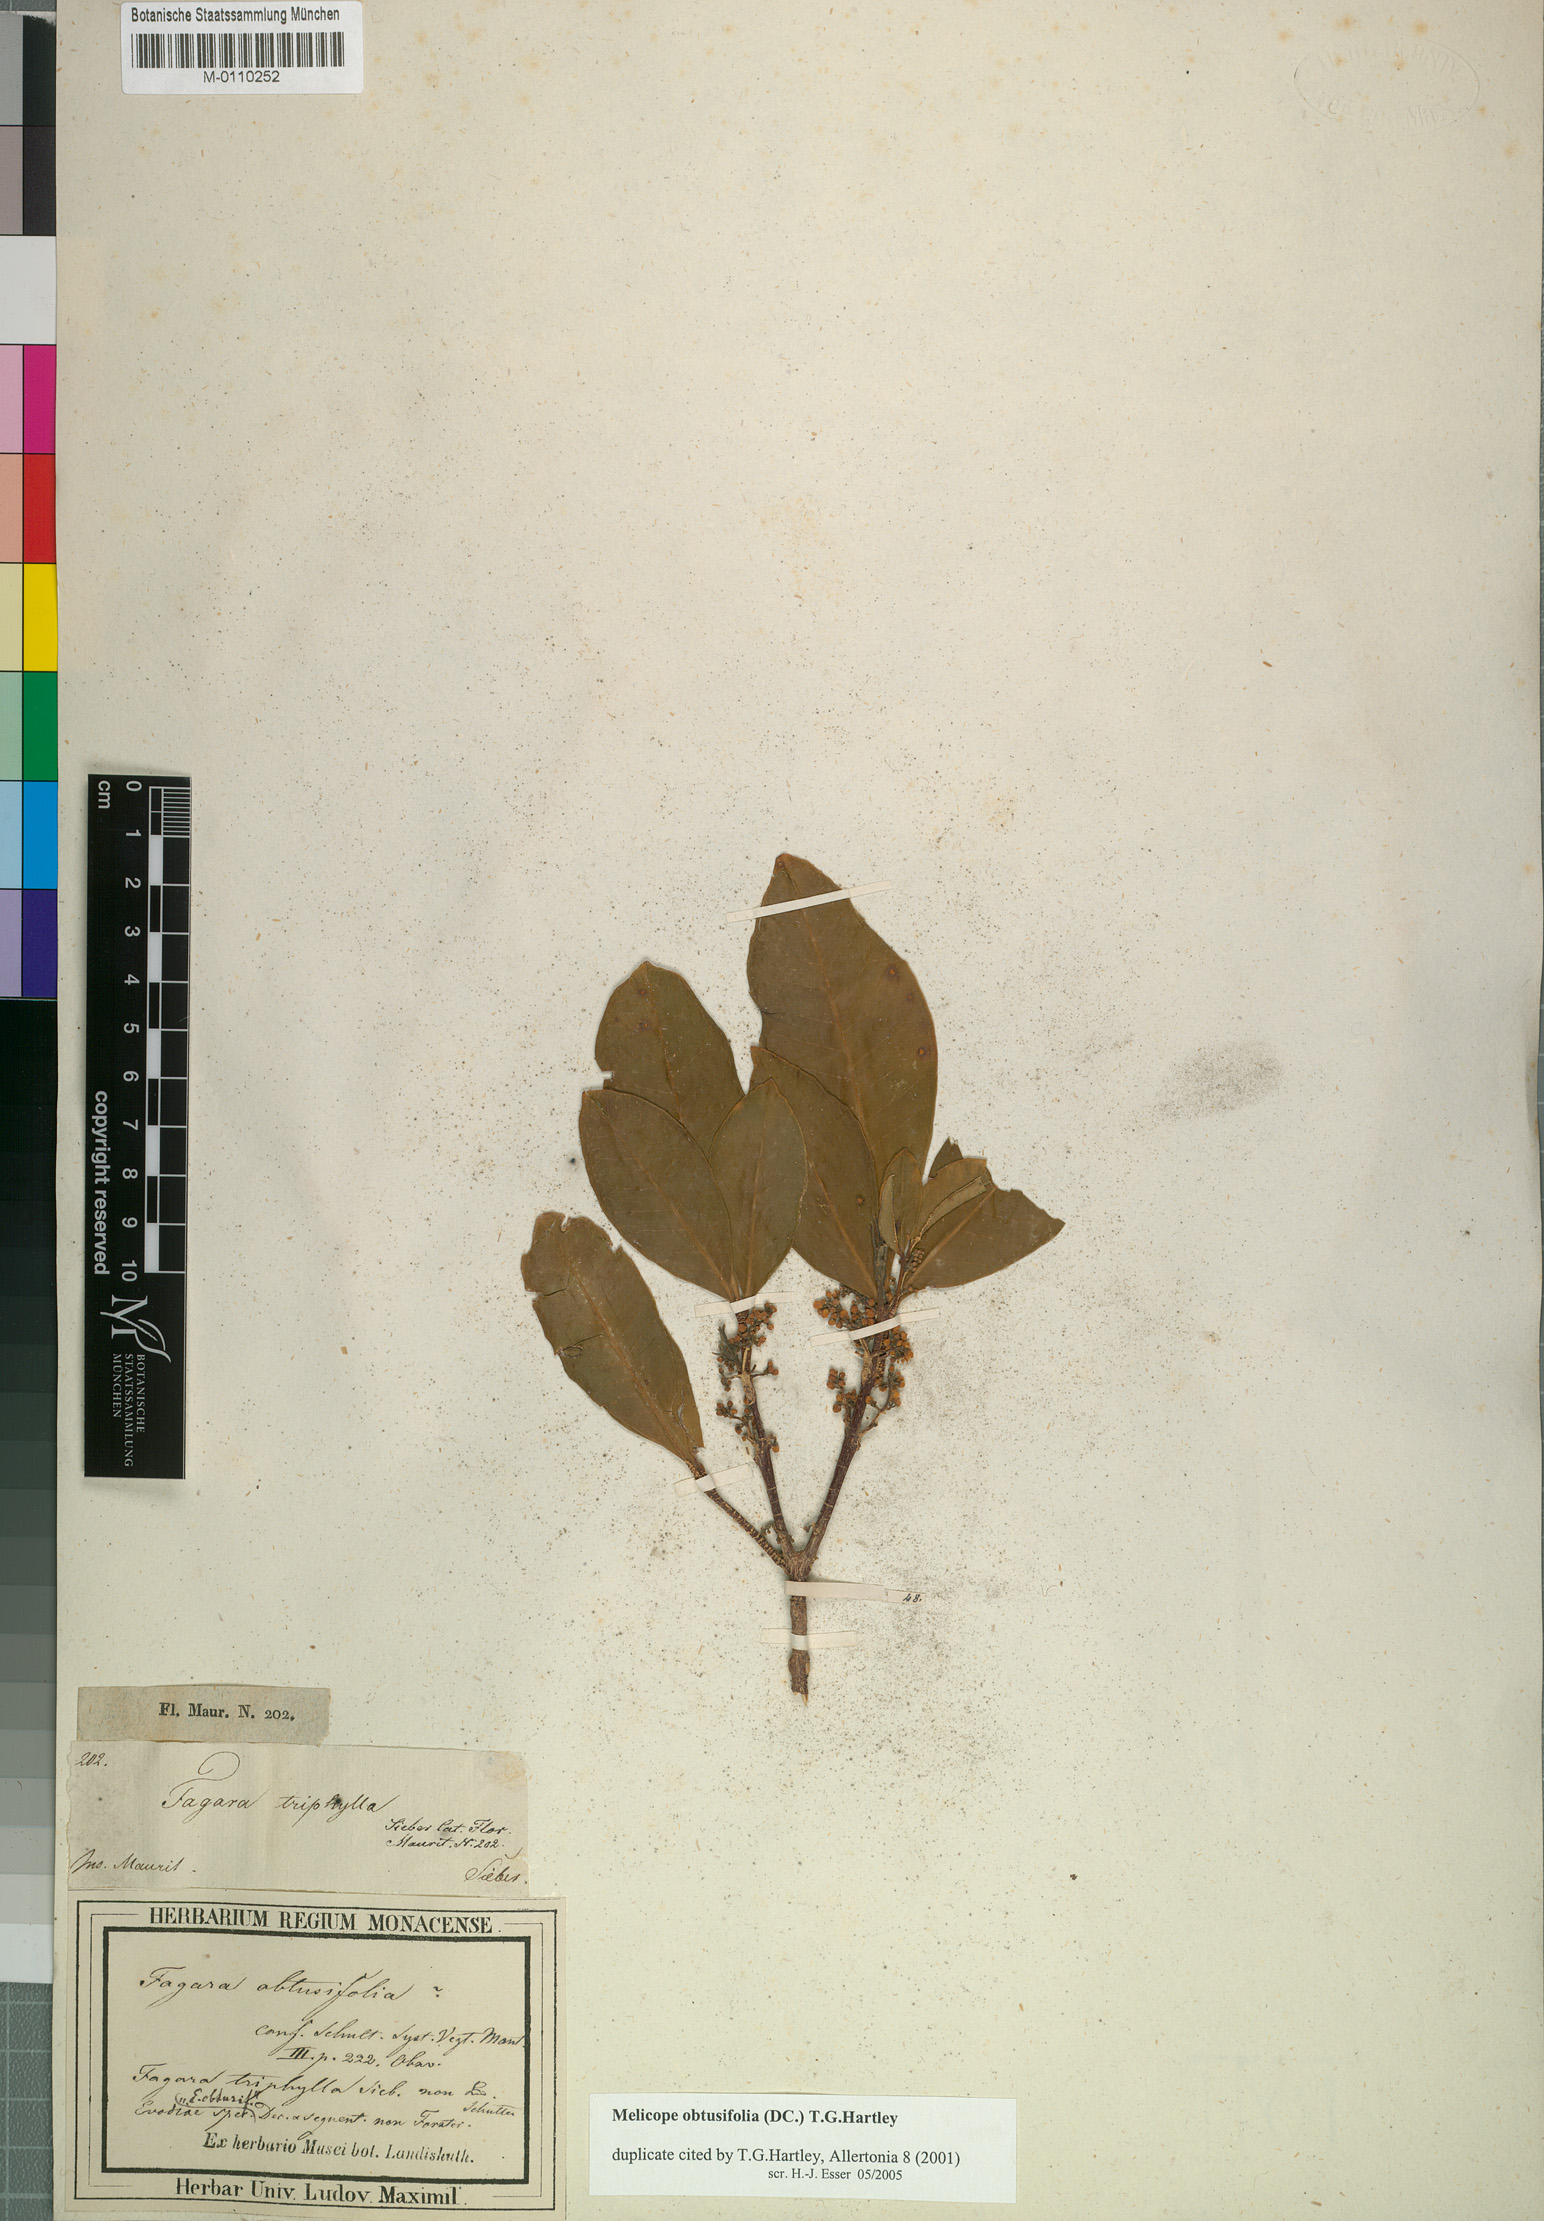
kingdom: Plantae
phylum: Tracheophyta
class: Magnoliopsida
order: Sapindales
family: Rutaceae
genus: Melicope
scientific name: Melicope obtusifolia
